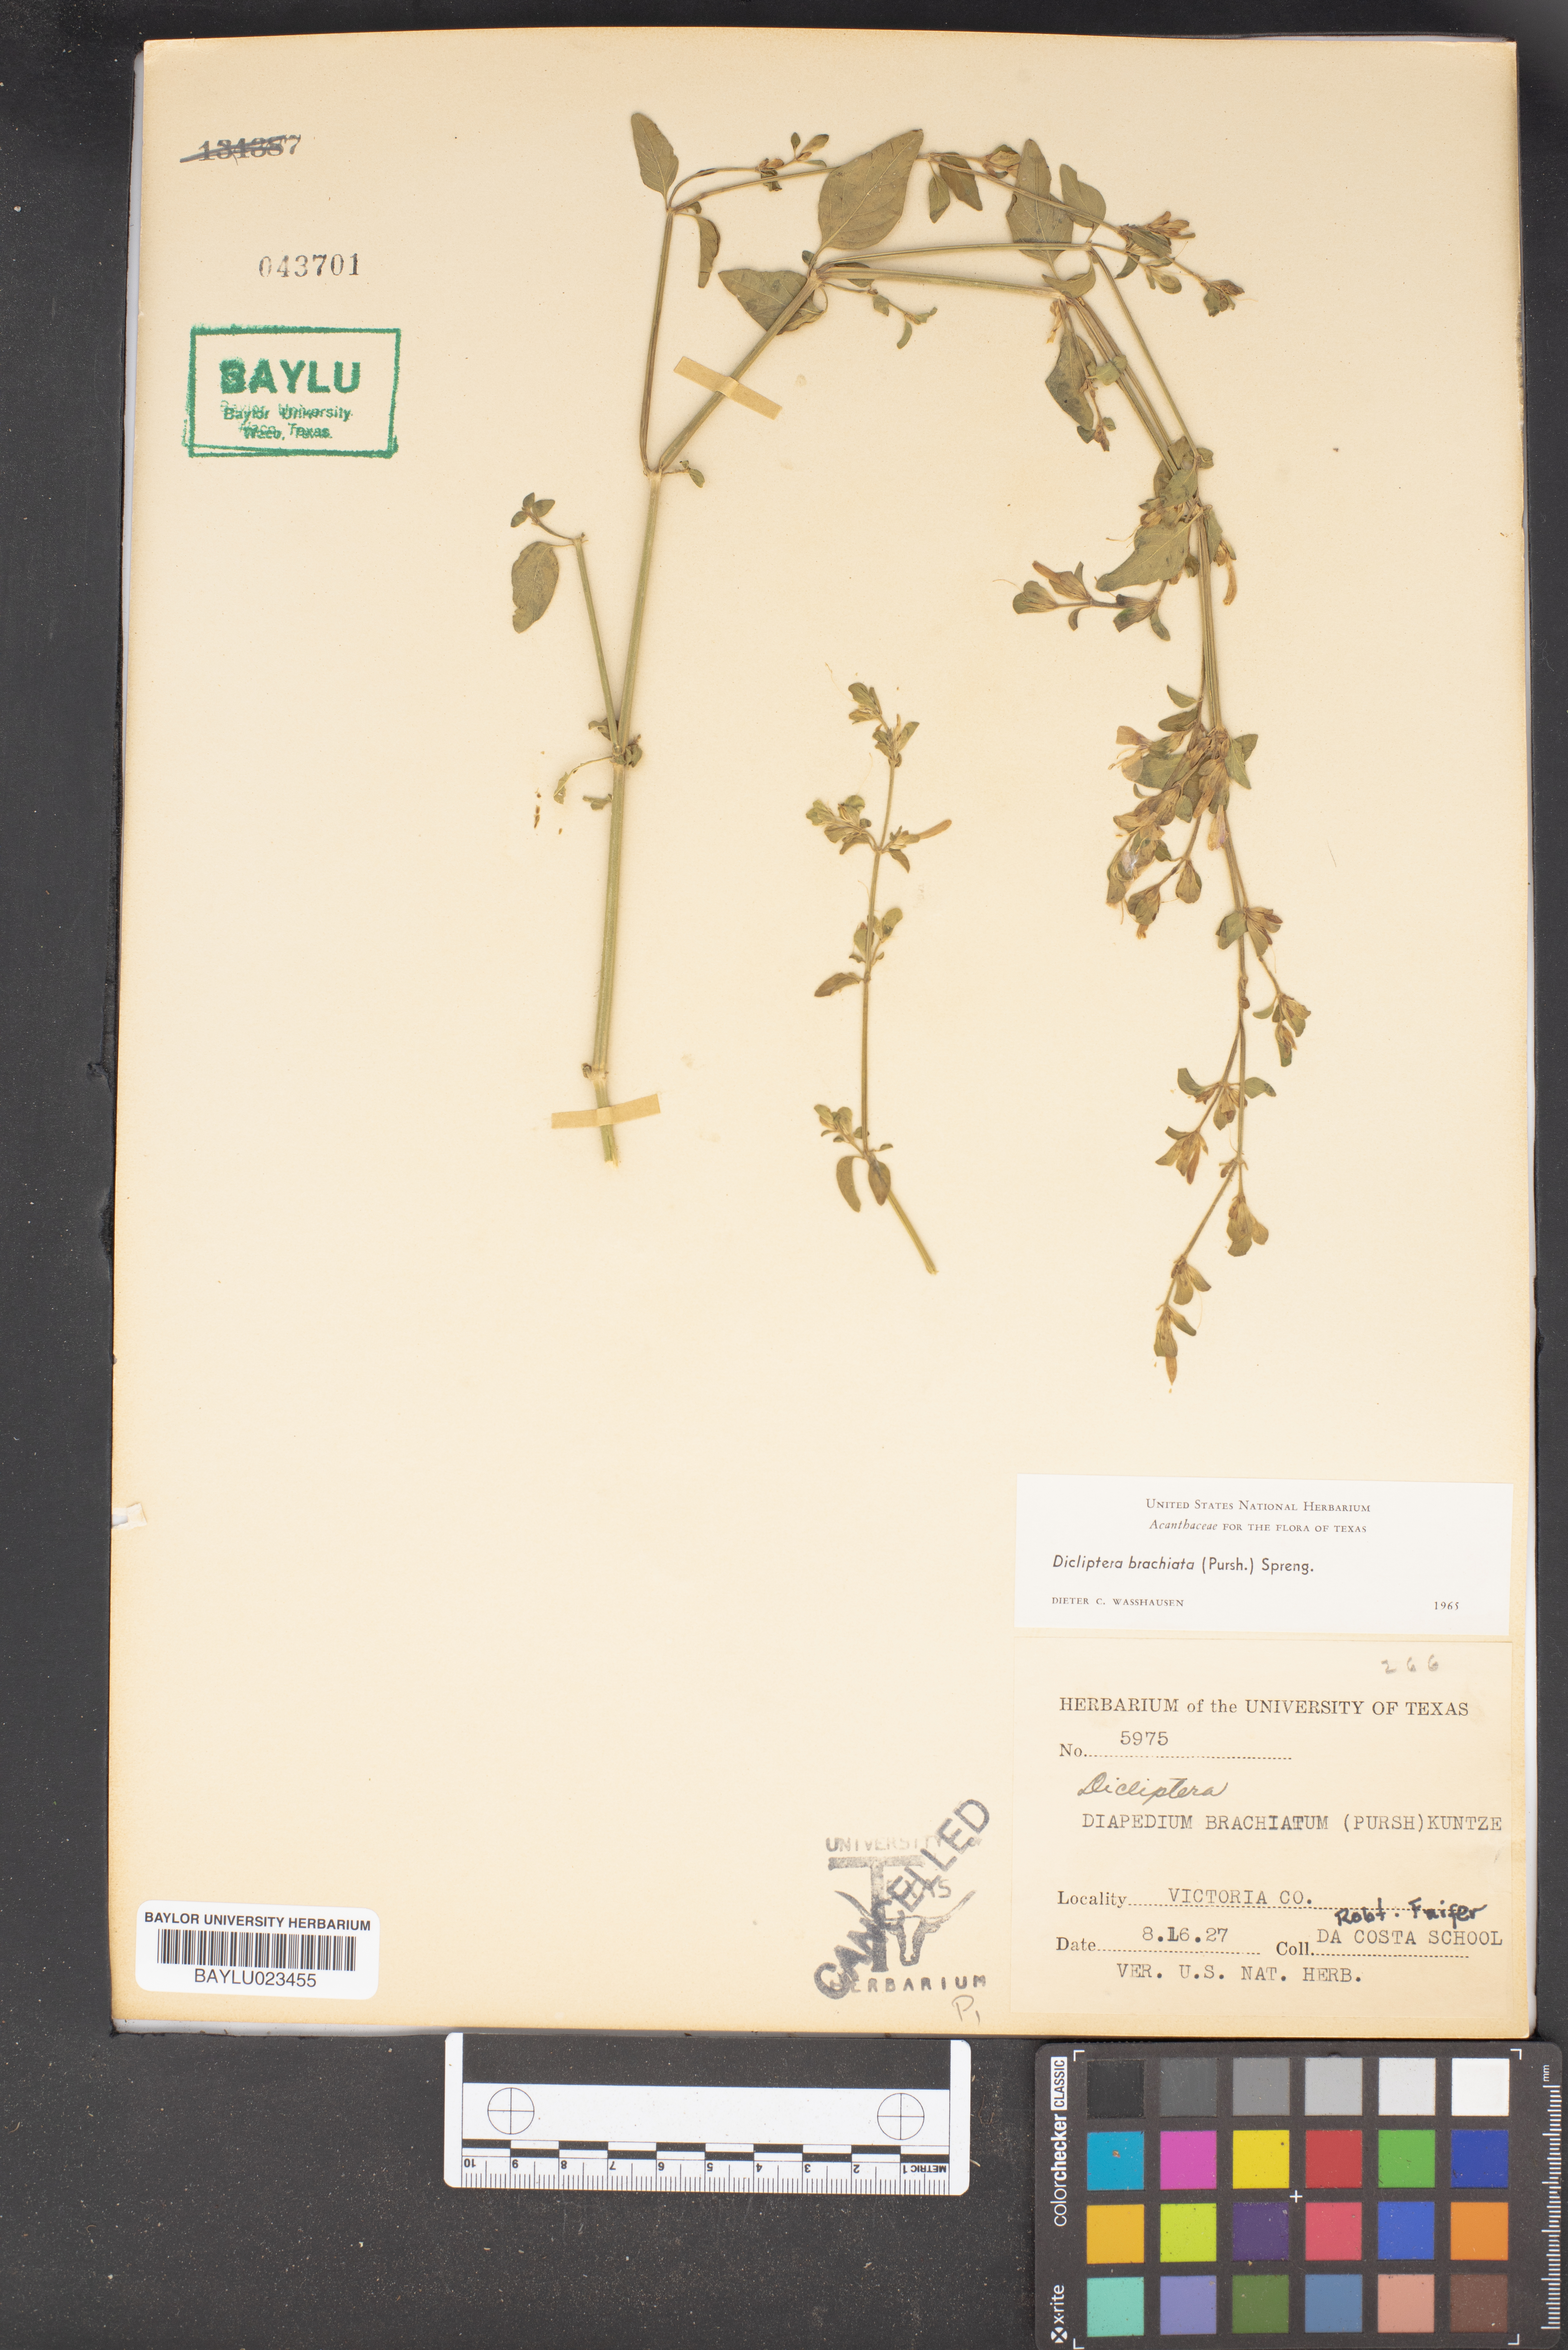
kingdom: Plantae
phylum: Tracheophyta
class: Magnoliopsida
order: Lamiales
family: Acanthaceae
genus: Dicliptera
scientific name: Dicliptera brachiata
